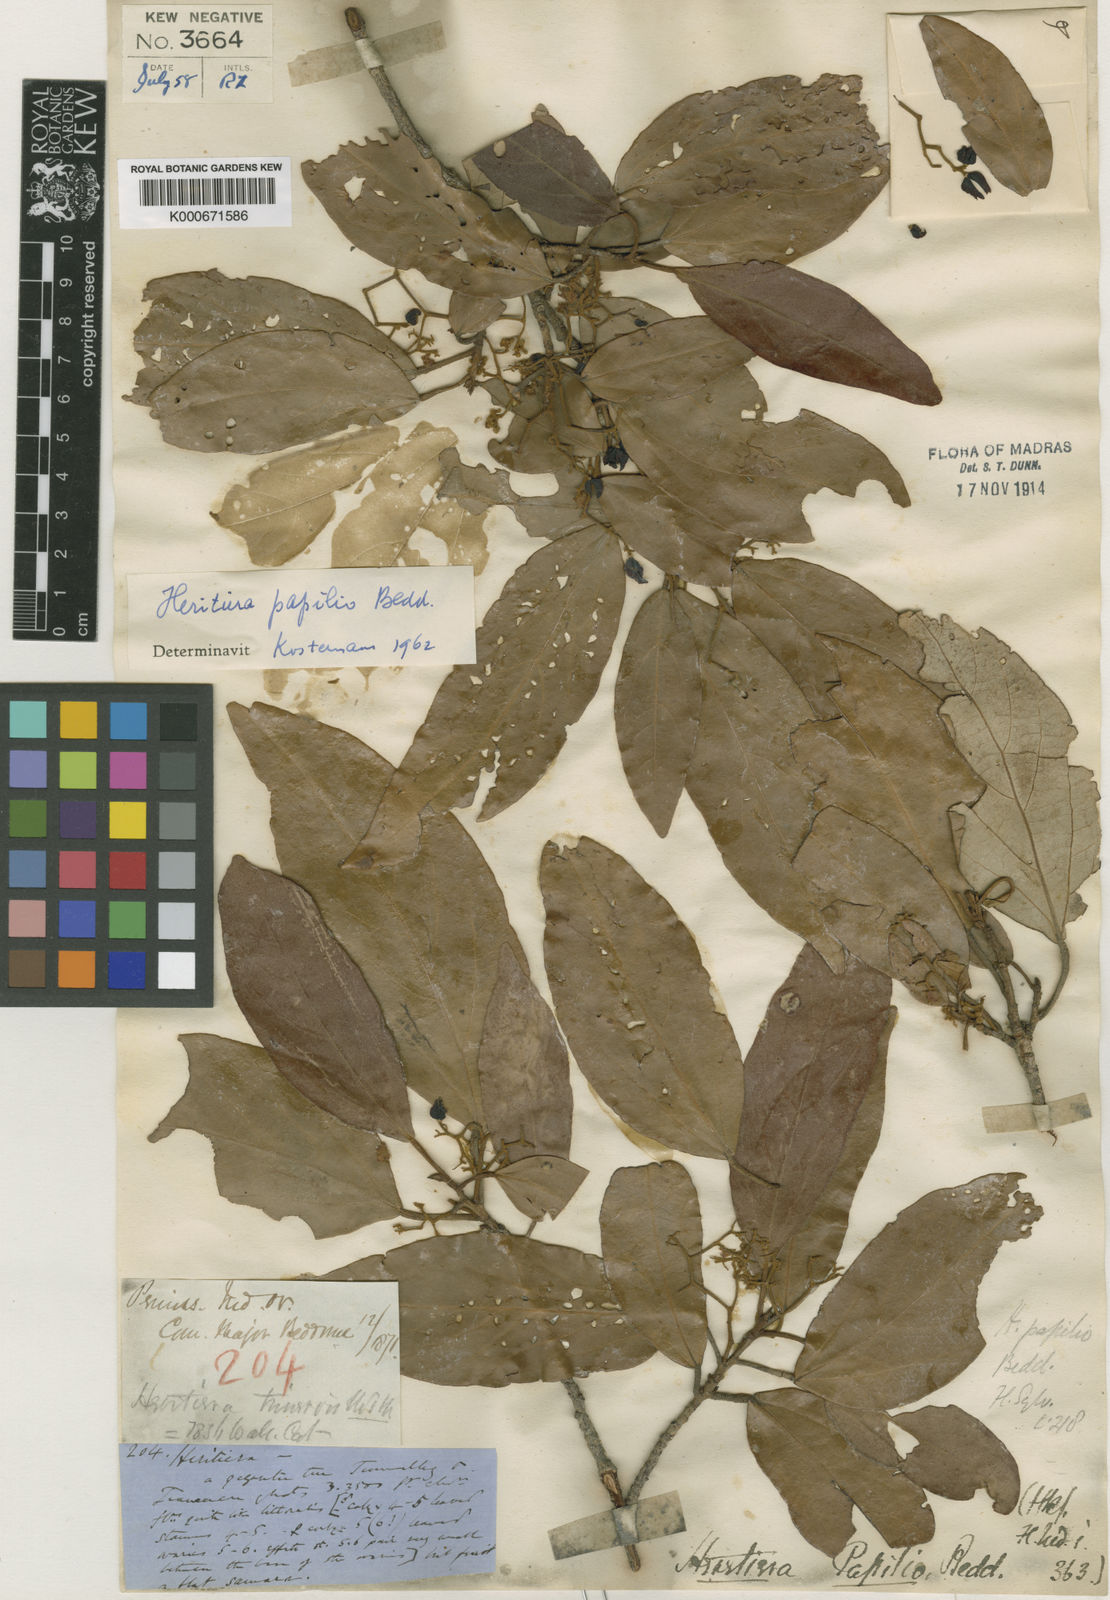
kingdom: Plantae
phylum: Tracheophyta
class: Magnoliopsida
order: Malvales
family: Malvaceae
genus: Heritiera
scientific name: Heritiera macrophylla
